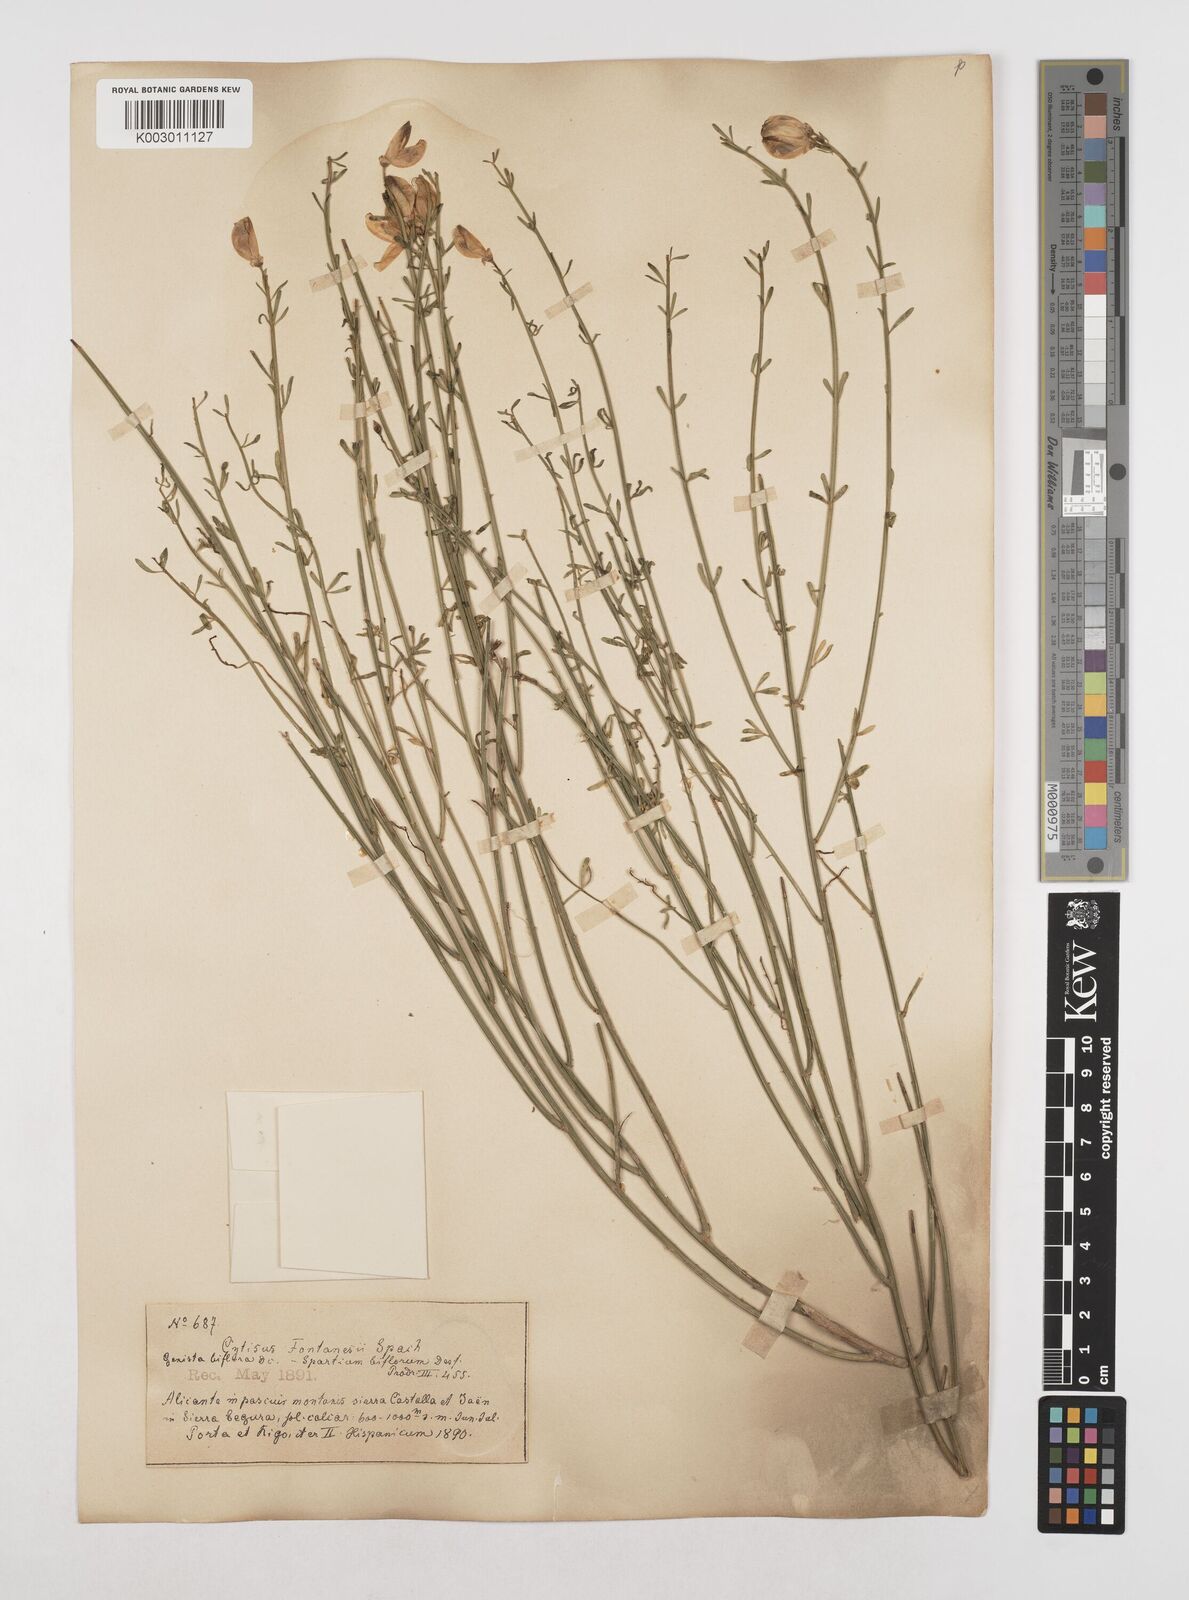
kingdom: Plantae
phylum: Tracheophyta
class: Magnoliopsida
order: Fabales
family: Fabaceae
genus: Cytisus
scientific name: Cytisus fontanesii
